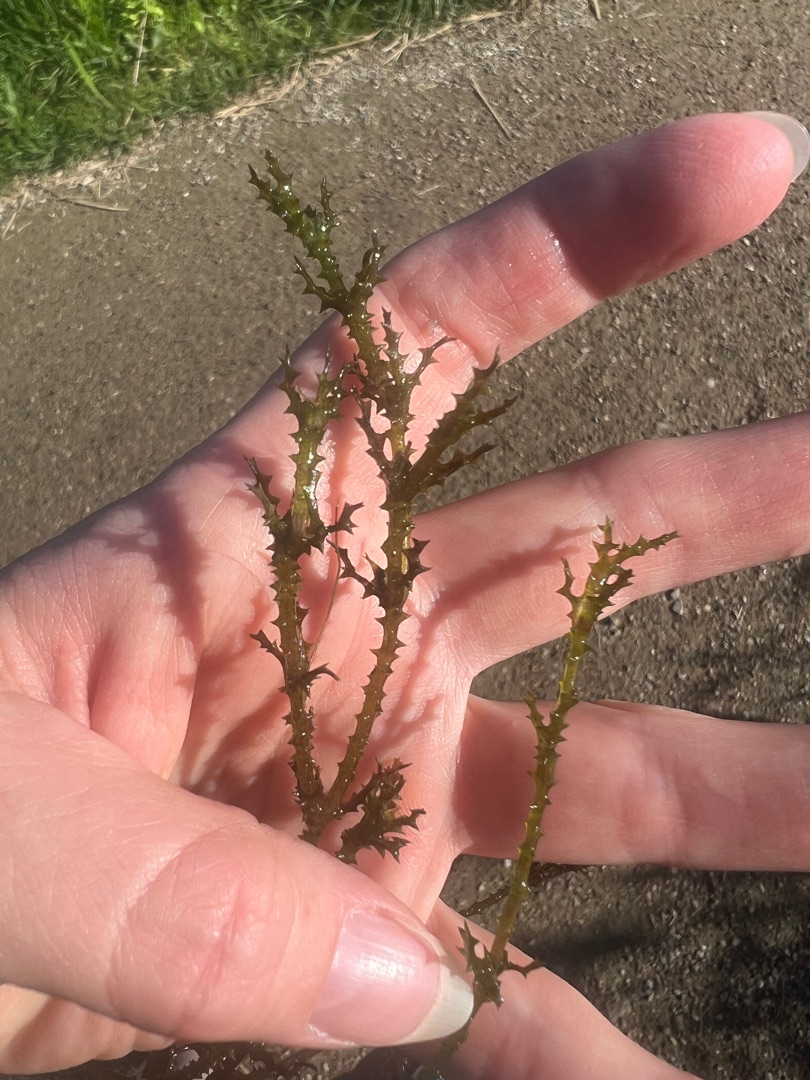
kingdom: Plantae
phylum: Tracheophyta
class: Liliopsida
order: Alismatales
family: Hydrocharitaceae
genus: Najas
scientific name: Najas marina
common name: Stor najade
